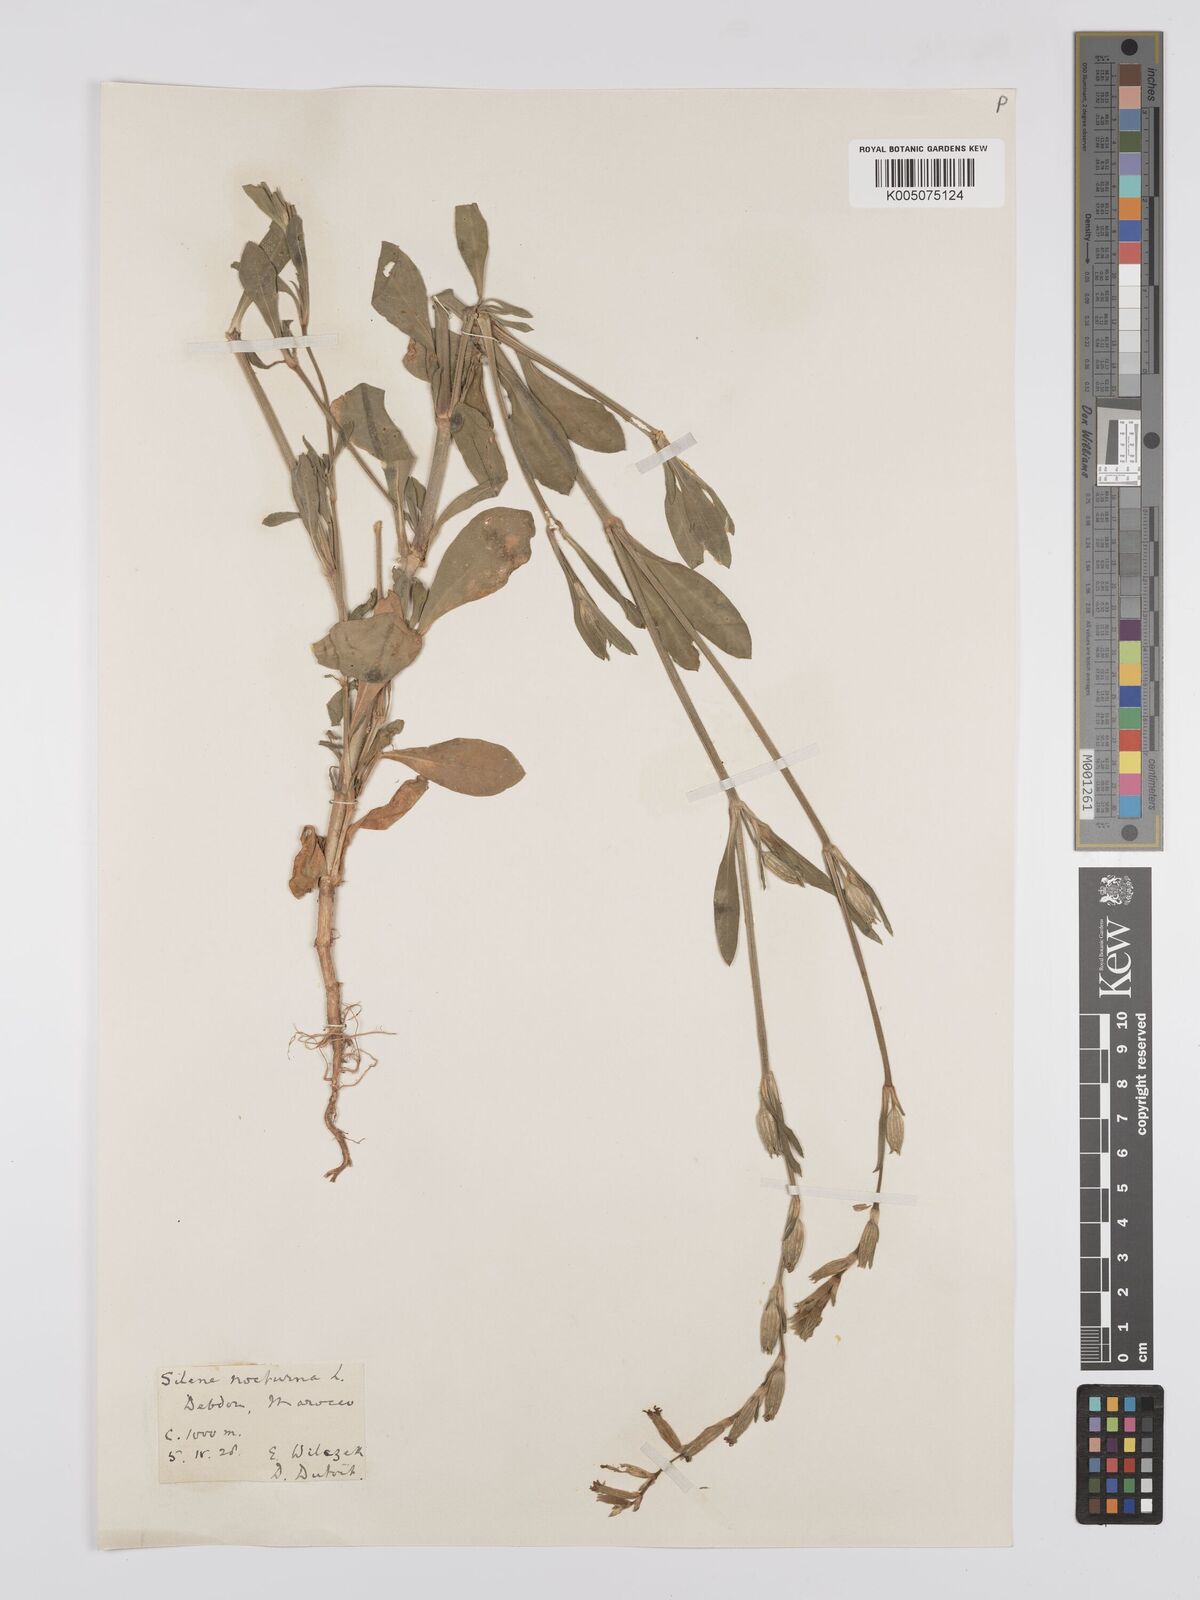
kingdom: Plantae
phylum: Tracheophyta
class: Magnoliopsida
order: Caryophyllales
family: Caryophyllaceae
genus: Silene
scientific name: Silene nocturna
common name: Mediterranean catchfly
